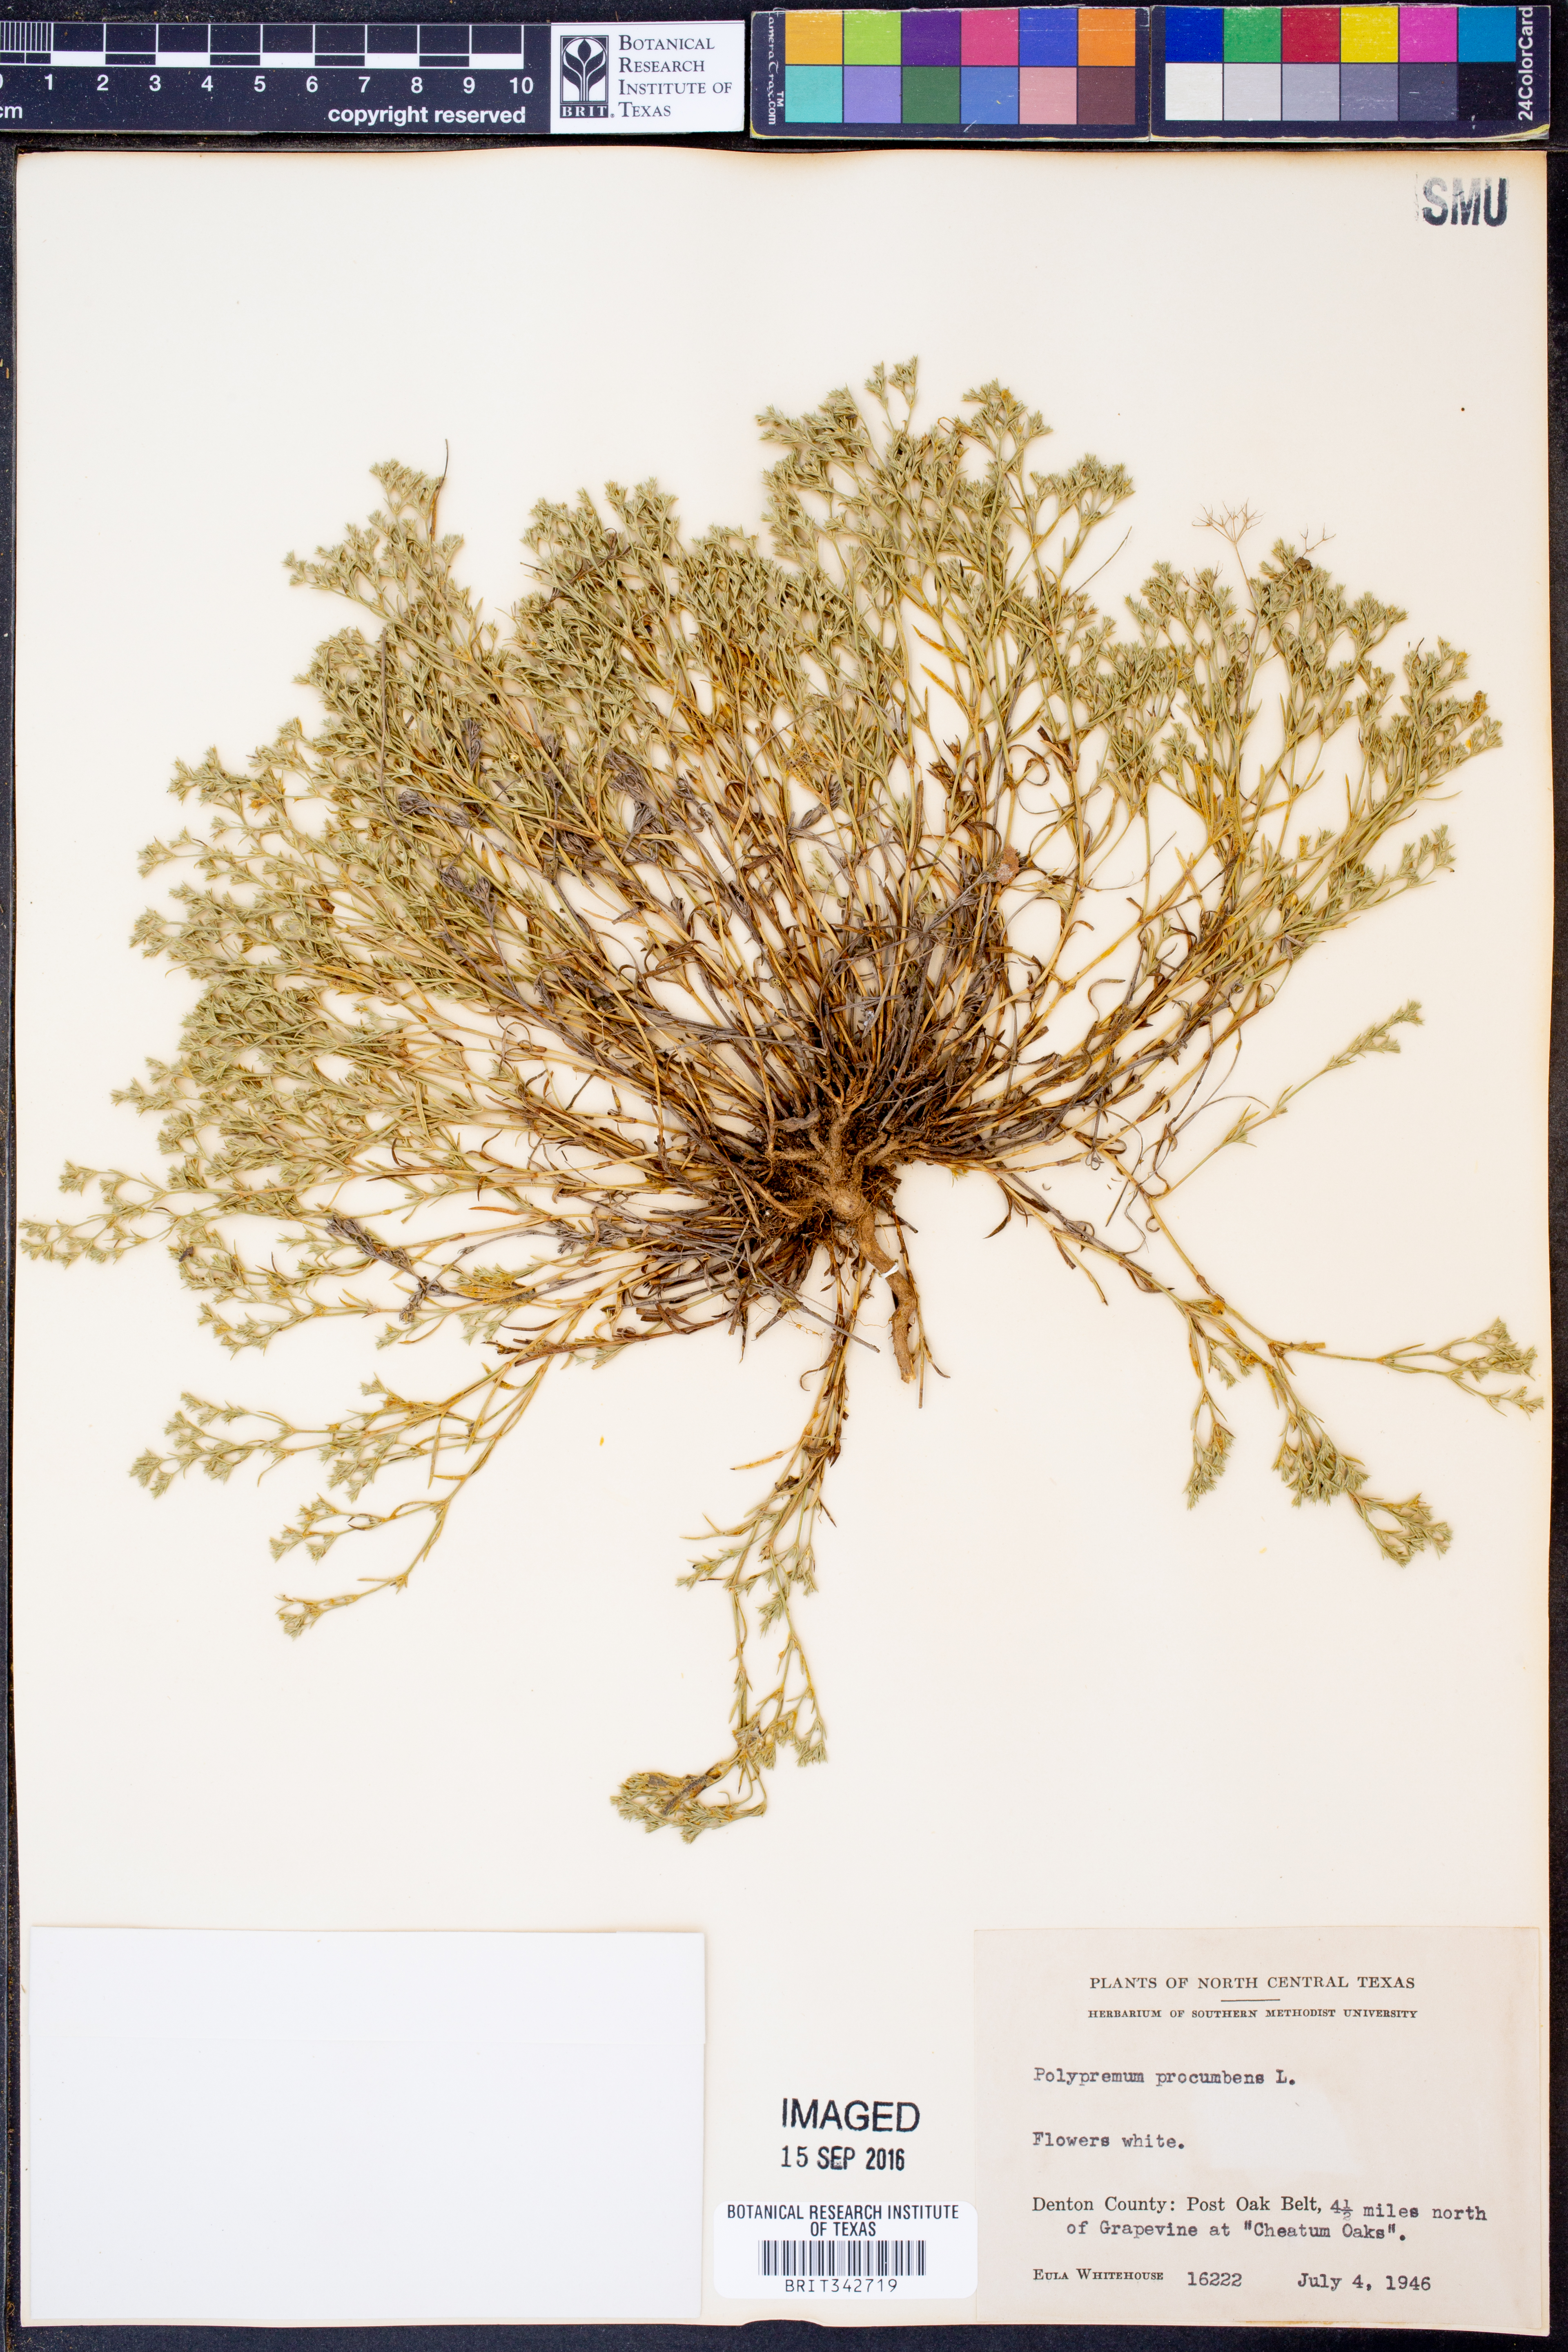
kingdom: Plantae
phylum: Tracheophyta
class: Magnoliopsida
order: Lamiales
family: Tetrachondraceae
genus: Polypremum
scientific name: Polypremum procumbens
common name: Juniper-leaf
